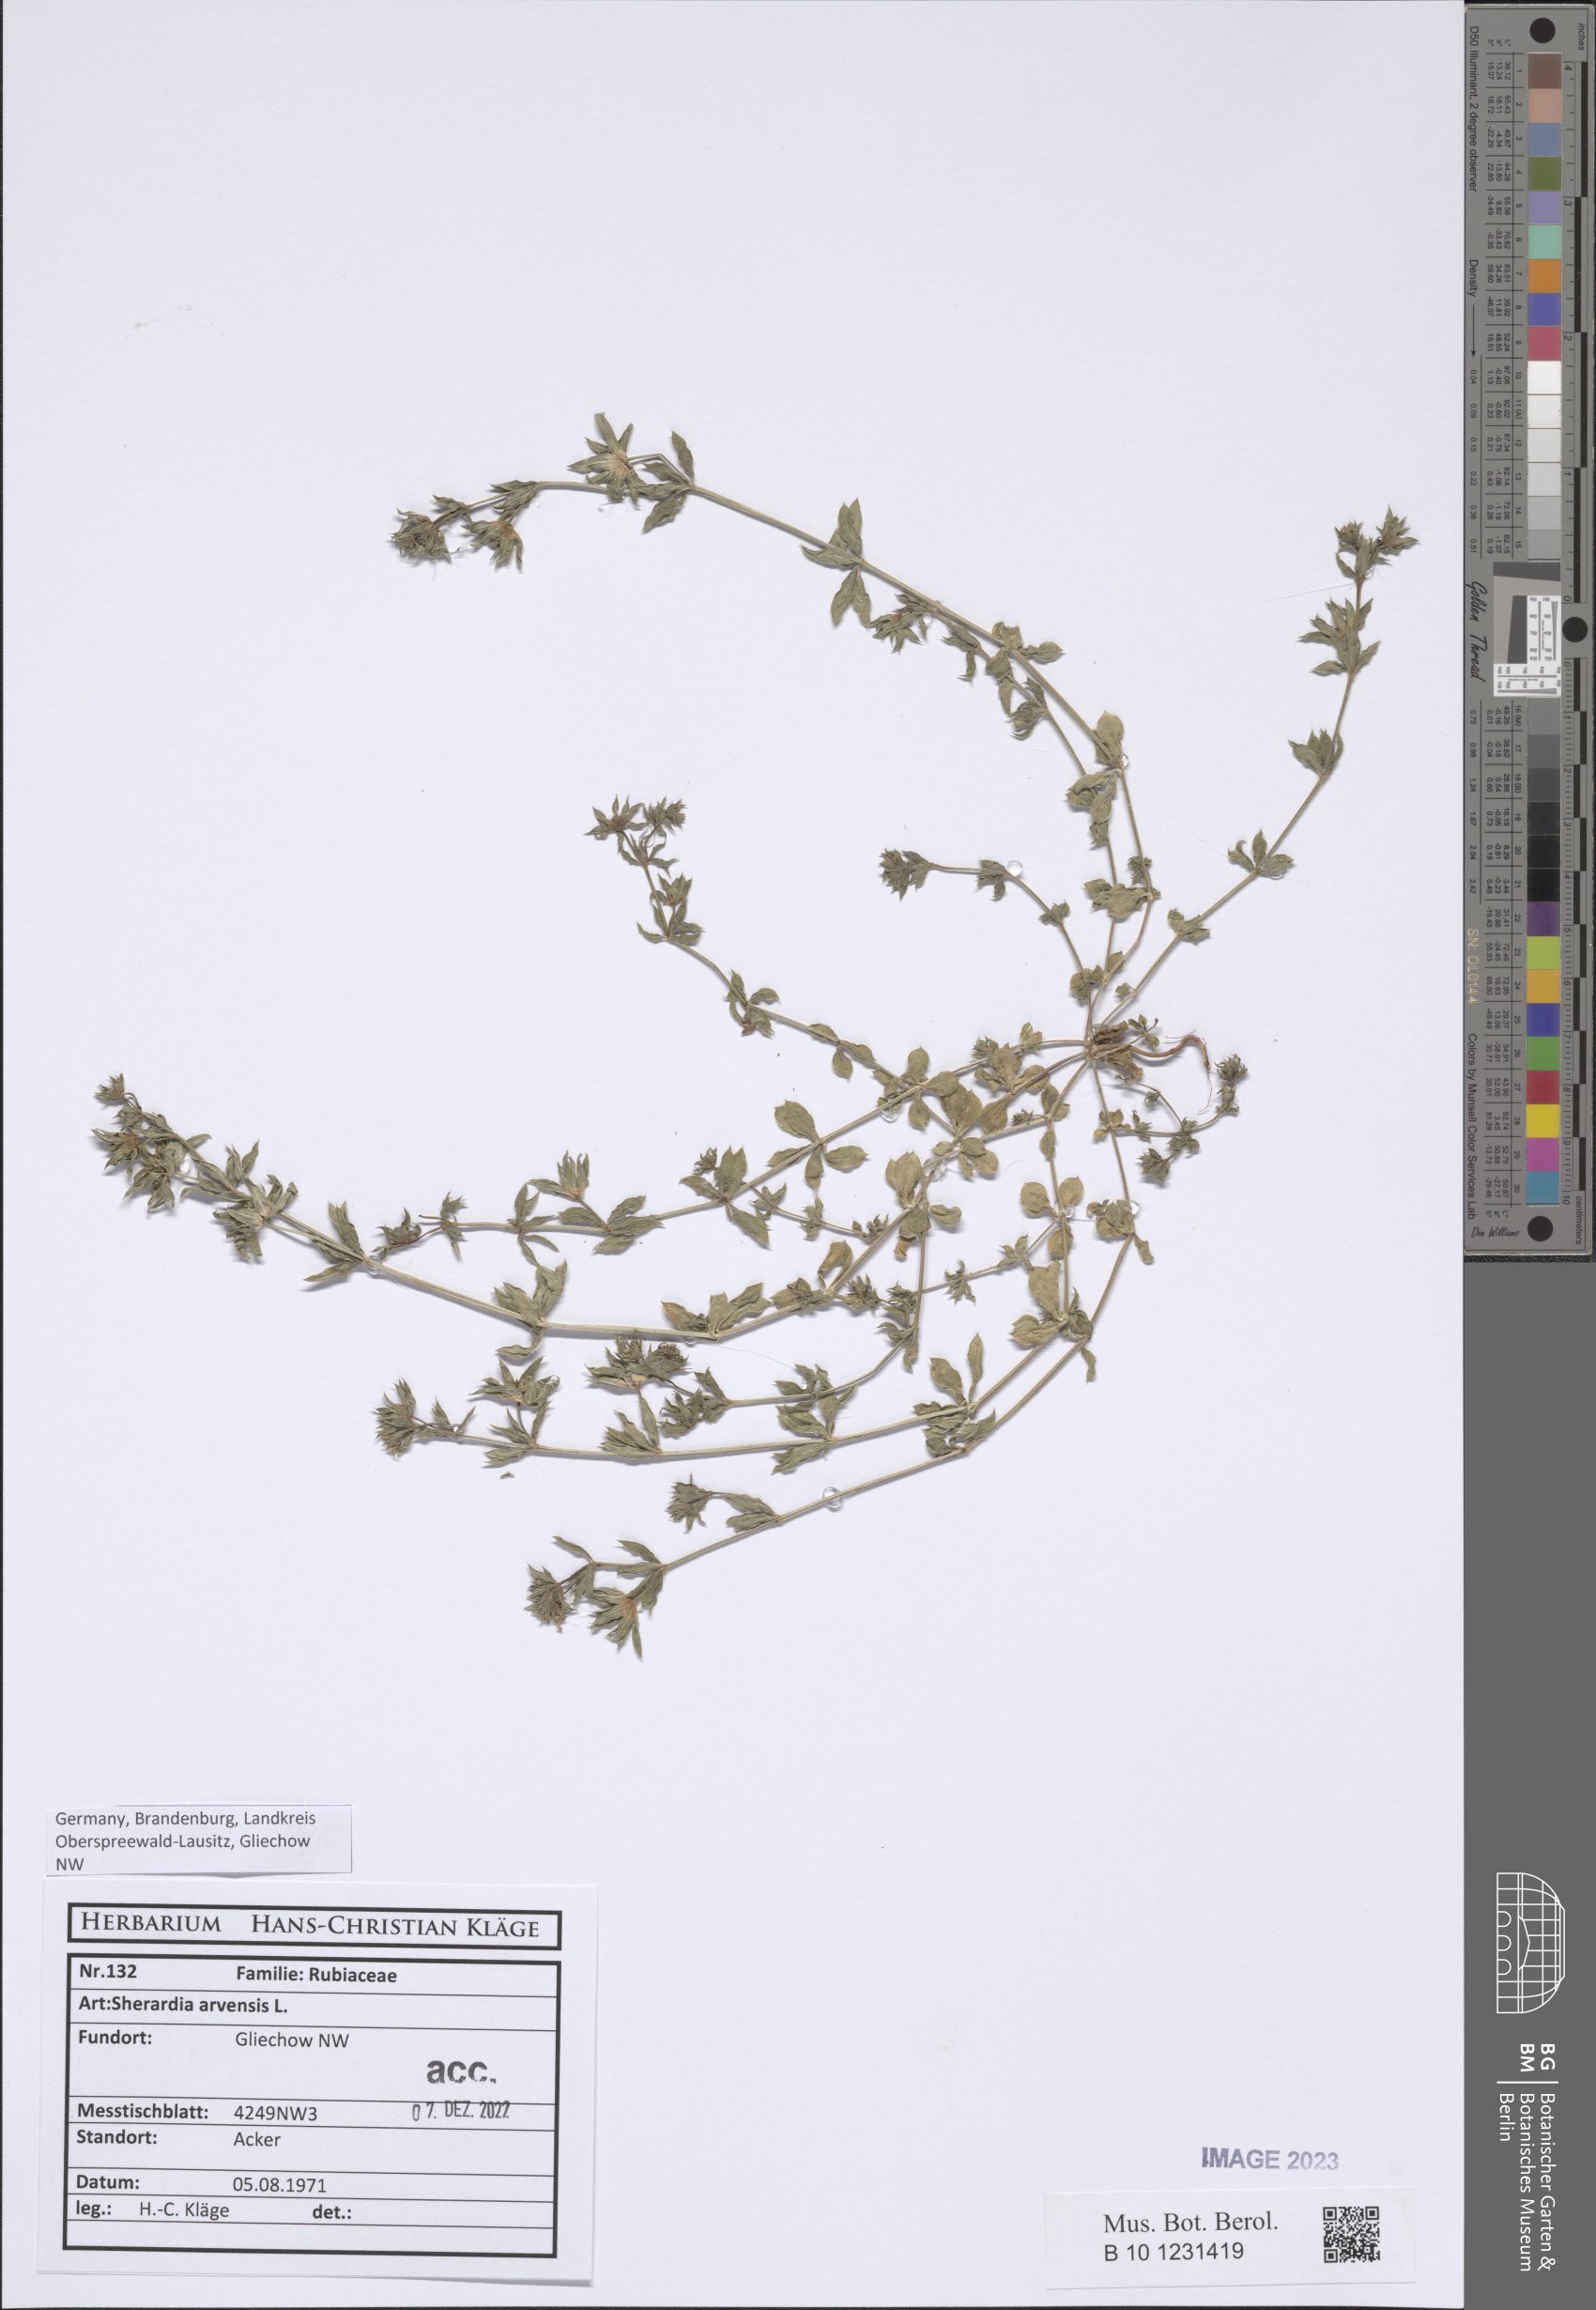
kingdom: Plantae
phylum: Tracheophyta
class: Magnoliopsida
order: Gentianales
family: Rubiaceae
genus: Sherardia
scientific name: Sherardia arvensis
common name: Field madder
